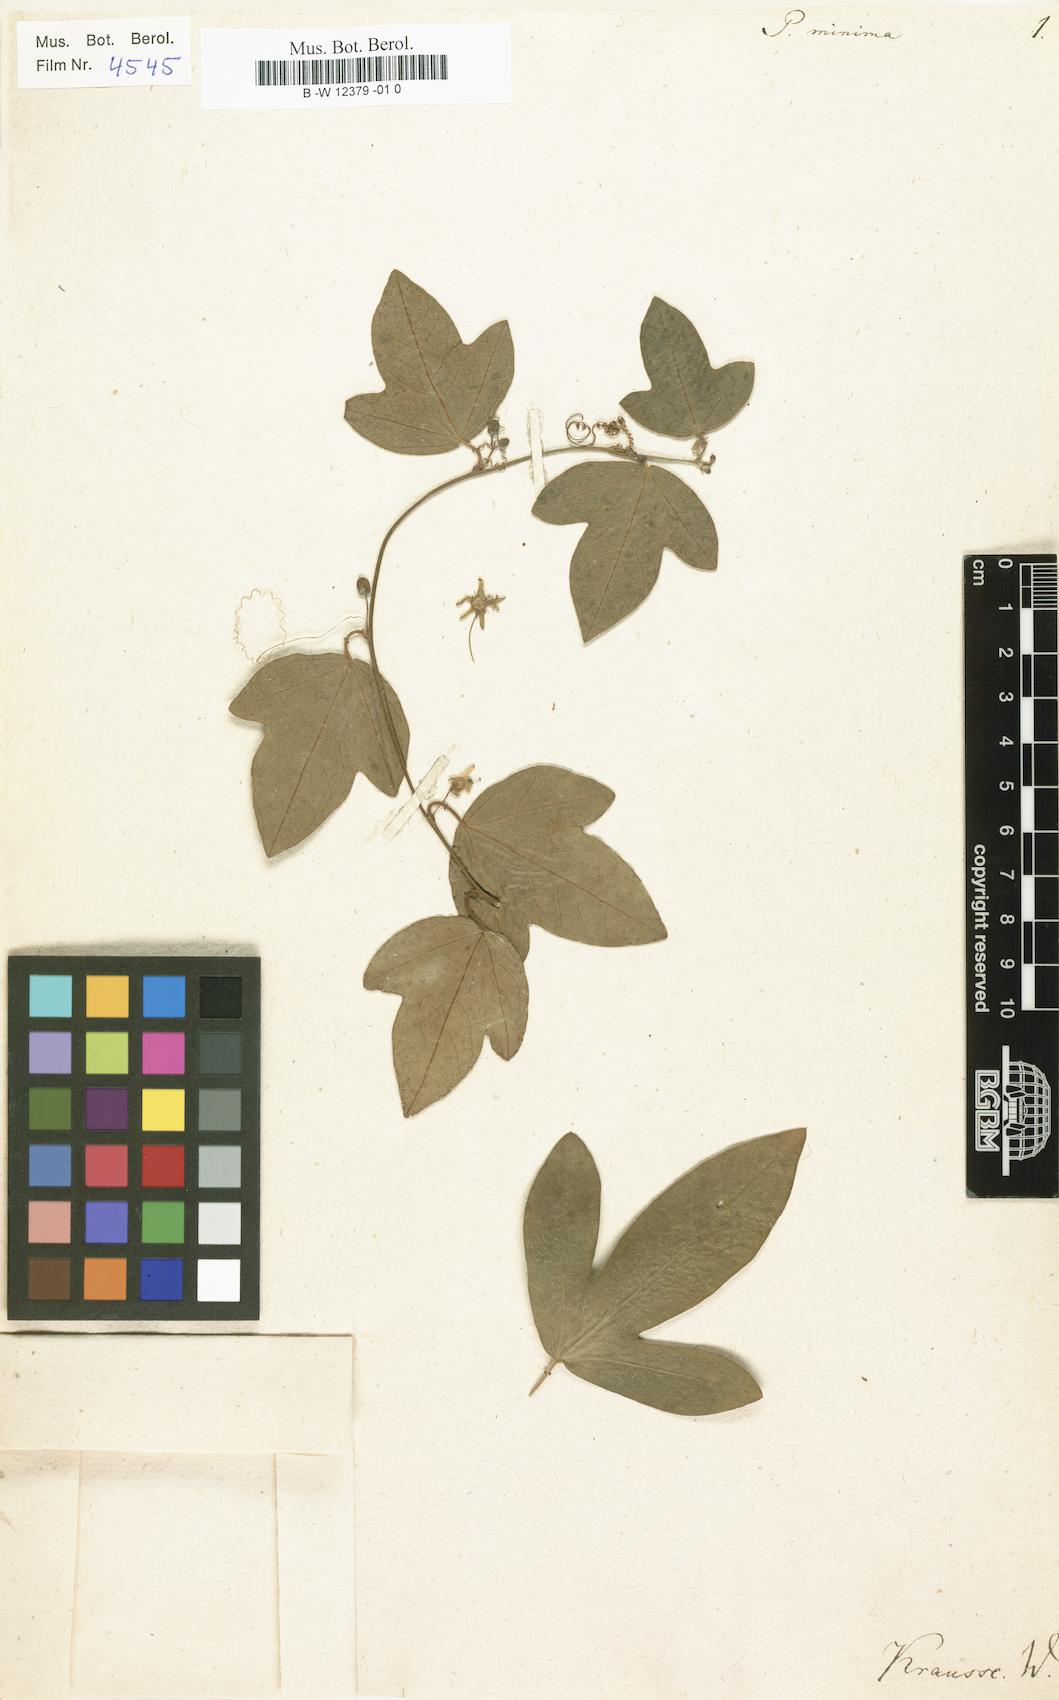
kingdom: Plantae
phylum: Tracheophyta
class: Magnoliopsida
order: Malpighiales
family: Passifloraceae
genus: Passiflora
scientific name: Passiflora
